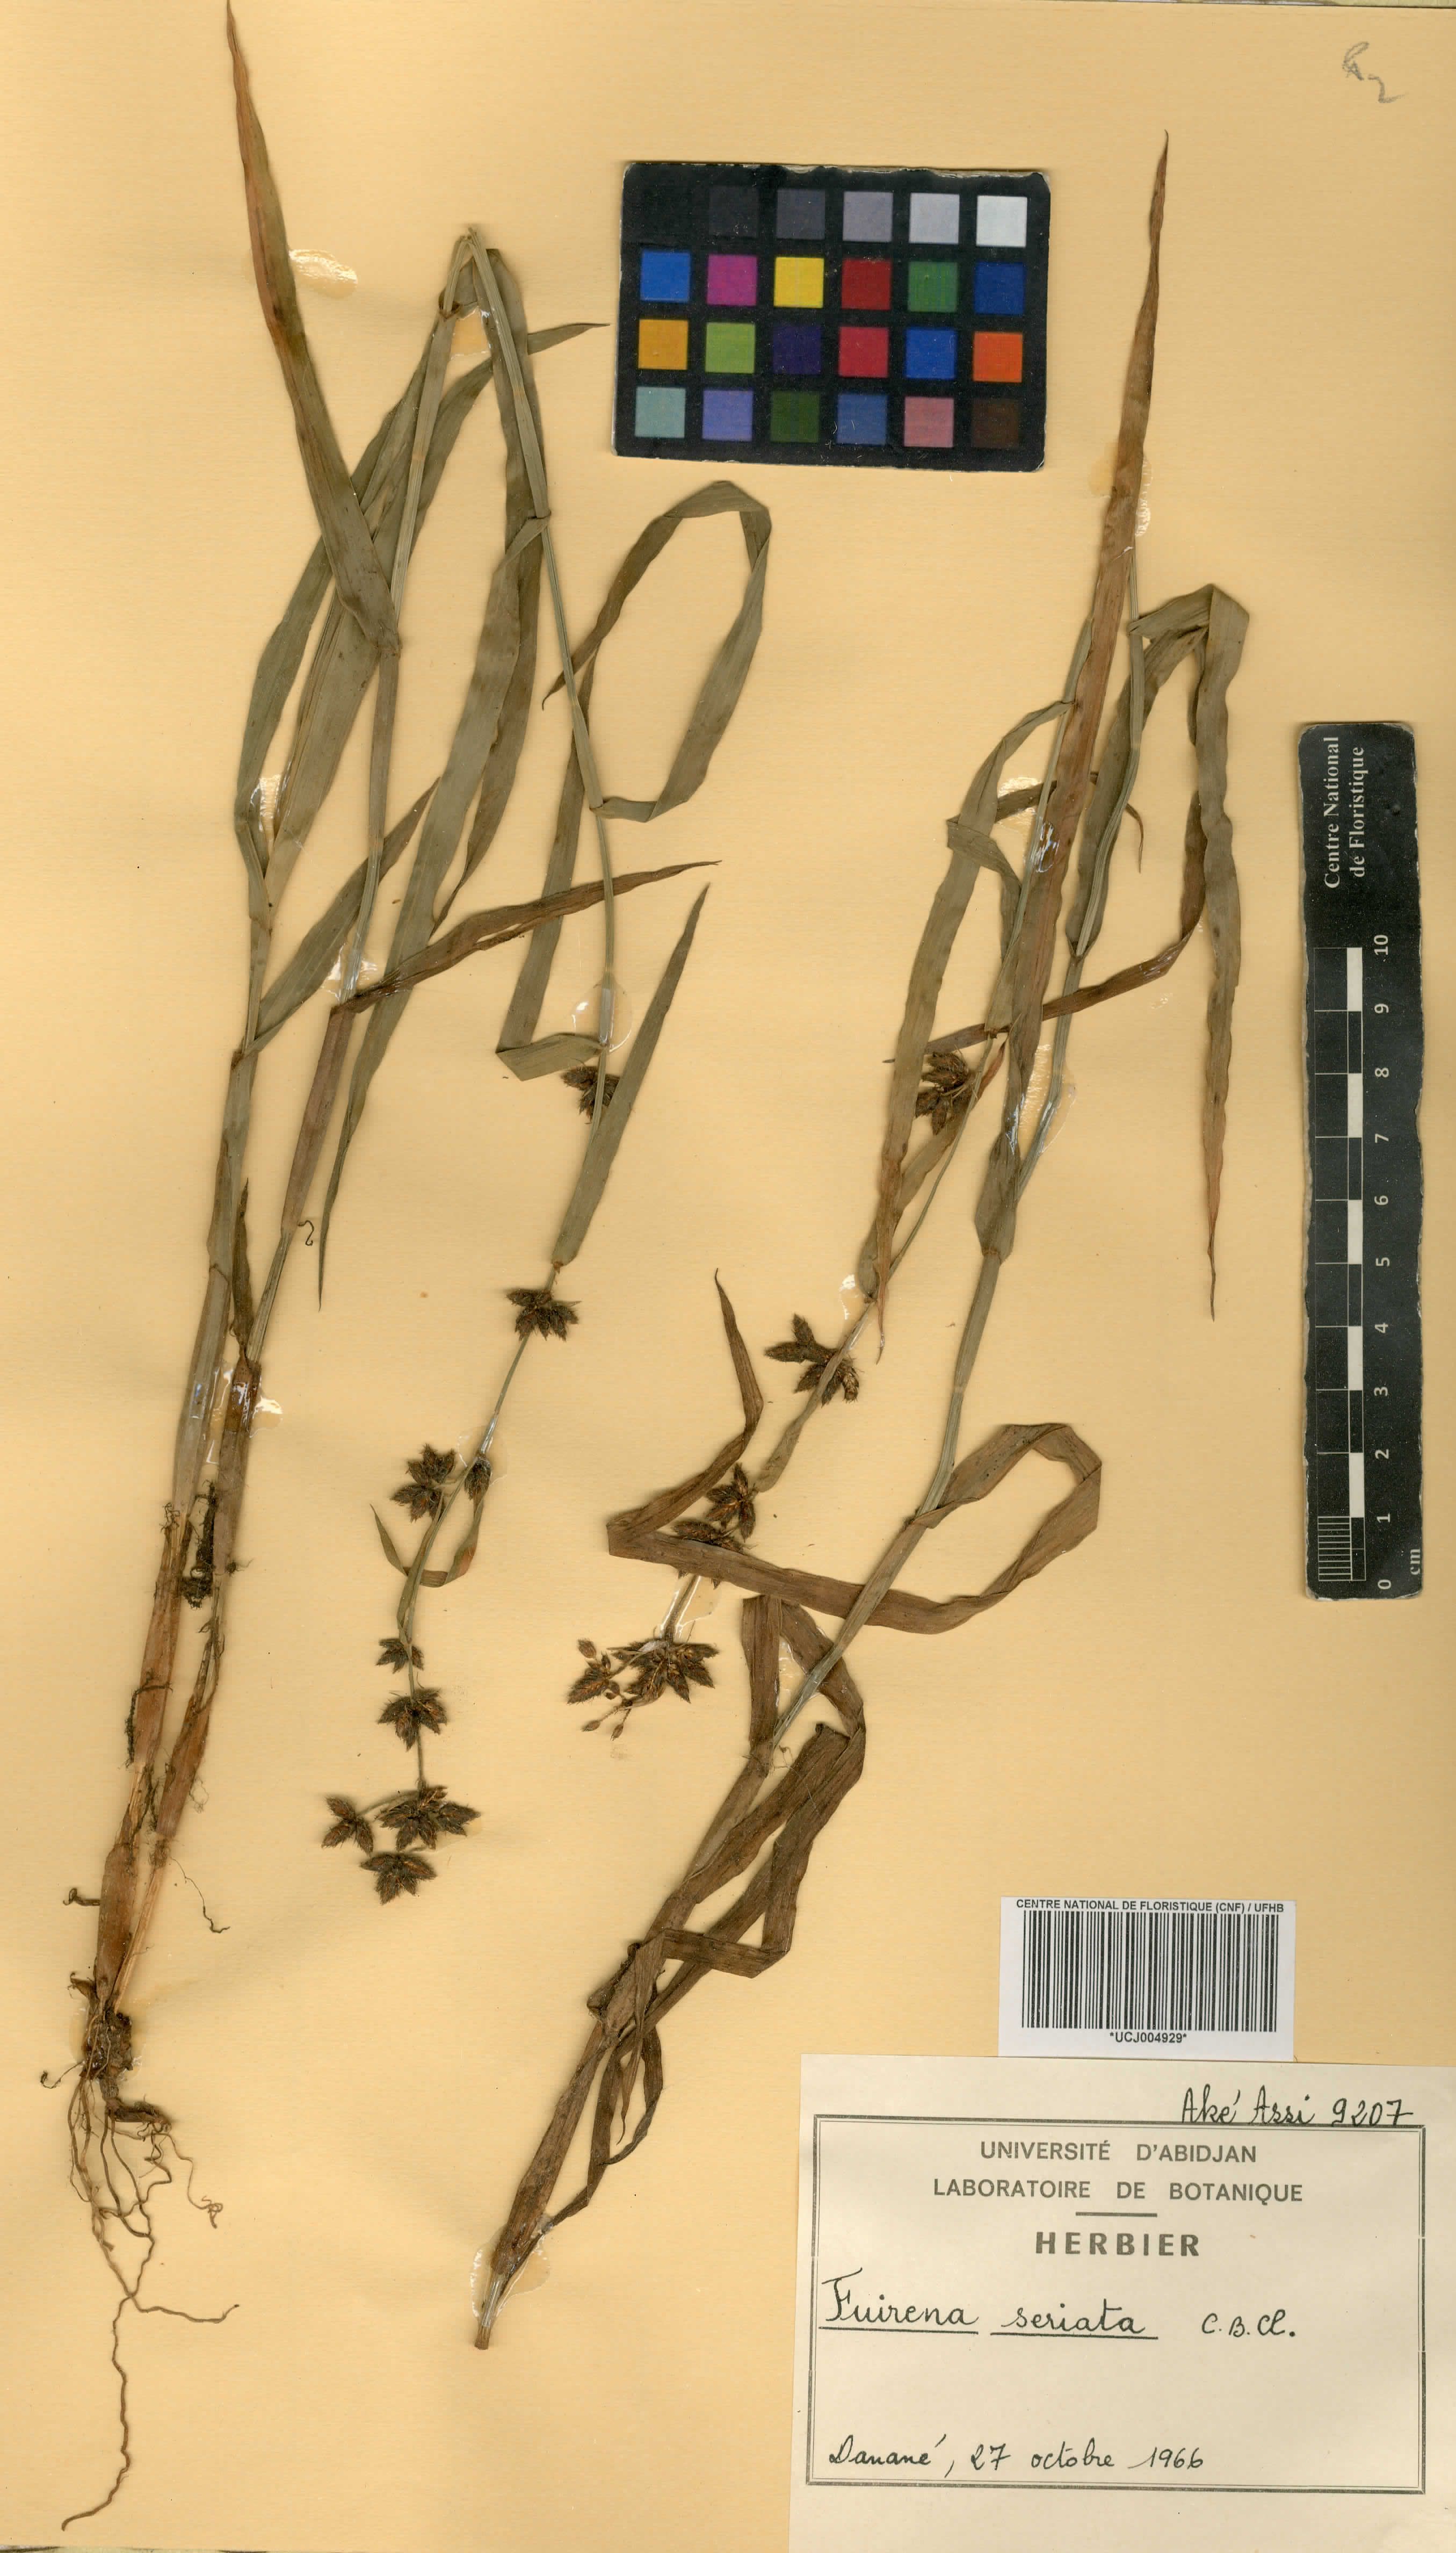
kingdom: Plantae
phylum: Tracheophyta
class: Liliopsida
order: Poales
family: Cyperaceae
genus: Fuirena
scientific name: Fuirena umbellata
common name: Yefen
